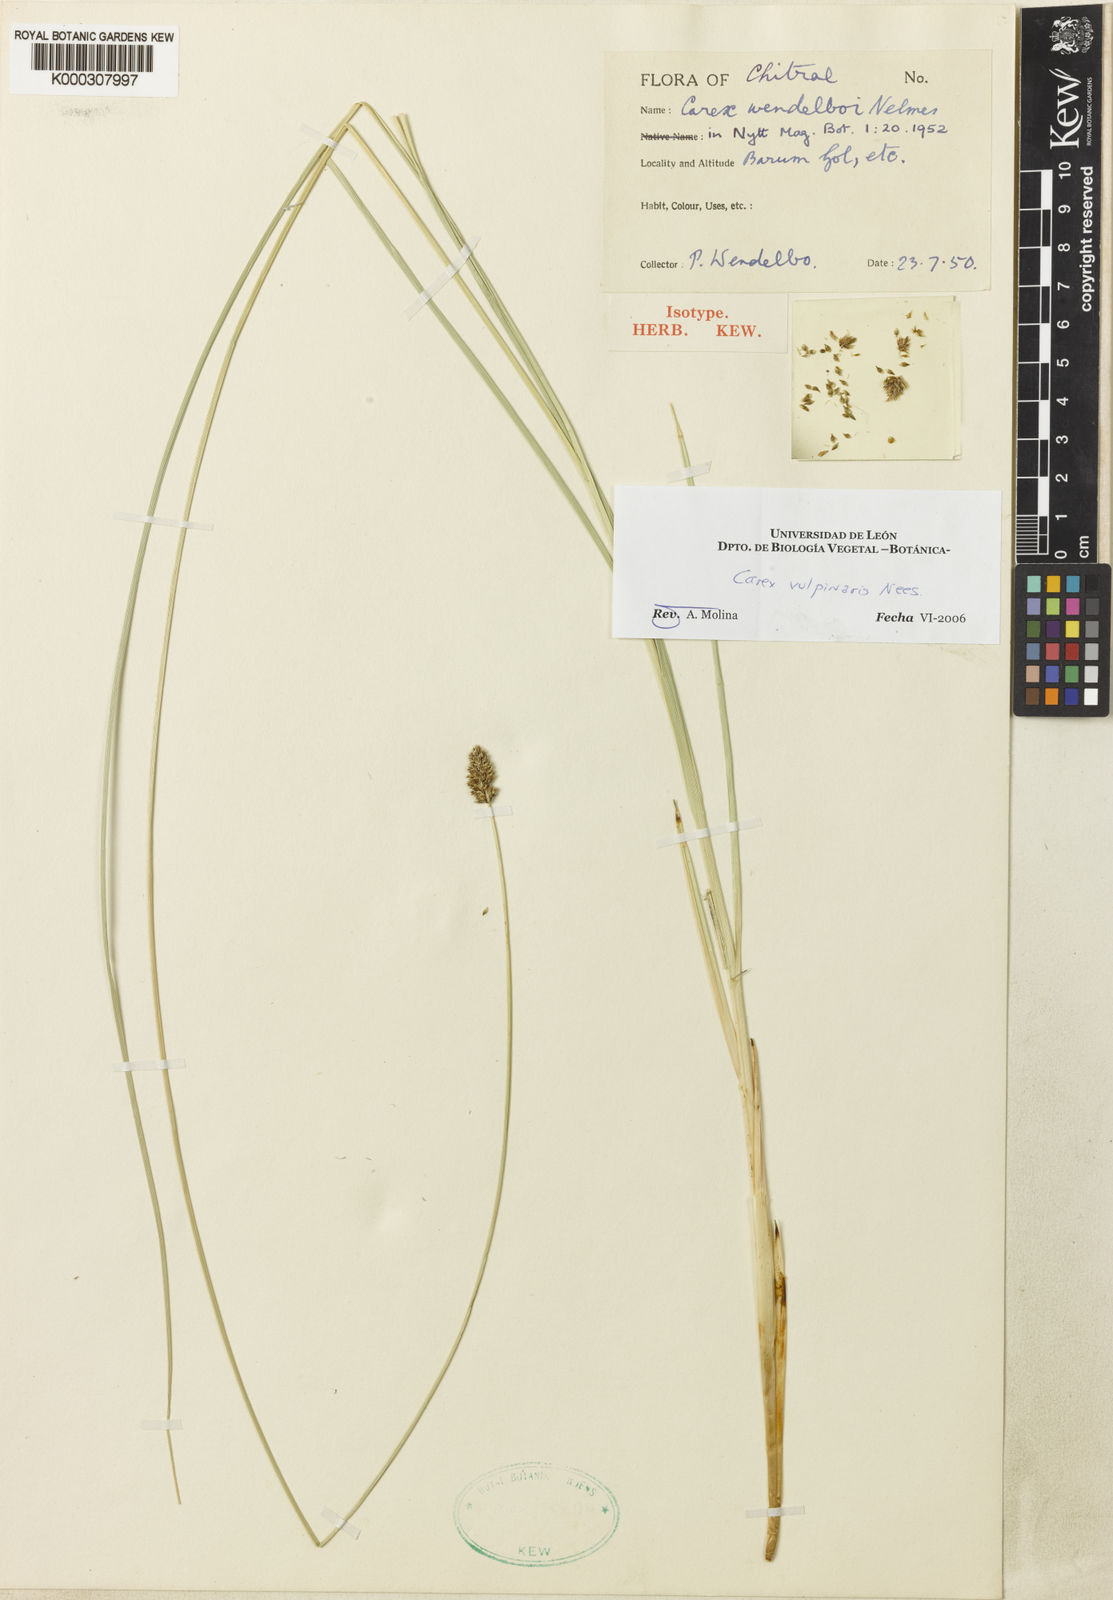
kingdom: Plantae
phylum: Tracheophyta
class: Liliopsida
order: Poales
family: Cyperaceae
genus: Carex
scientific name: Carex vulpinaris
